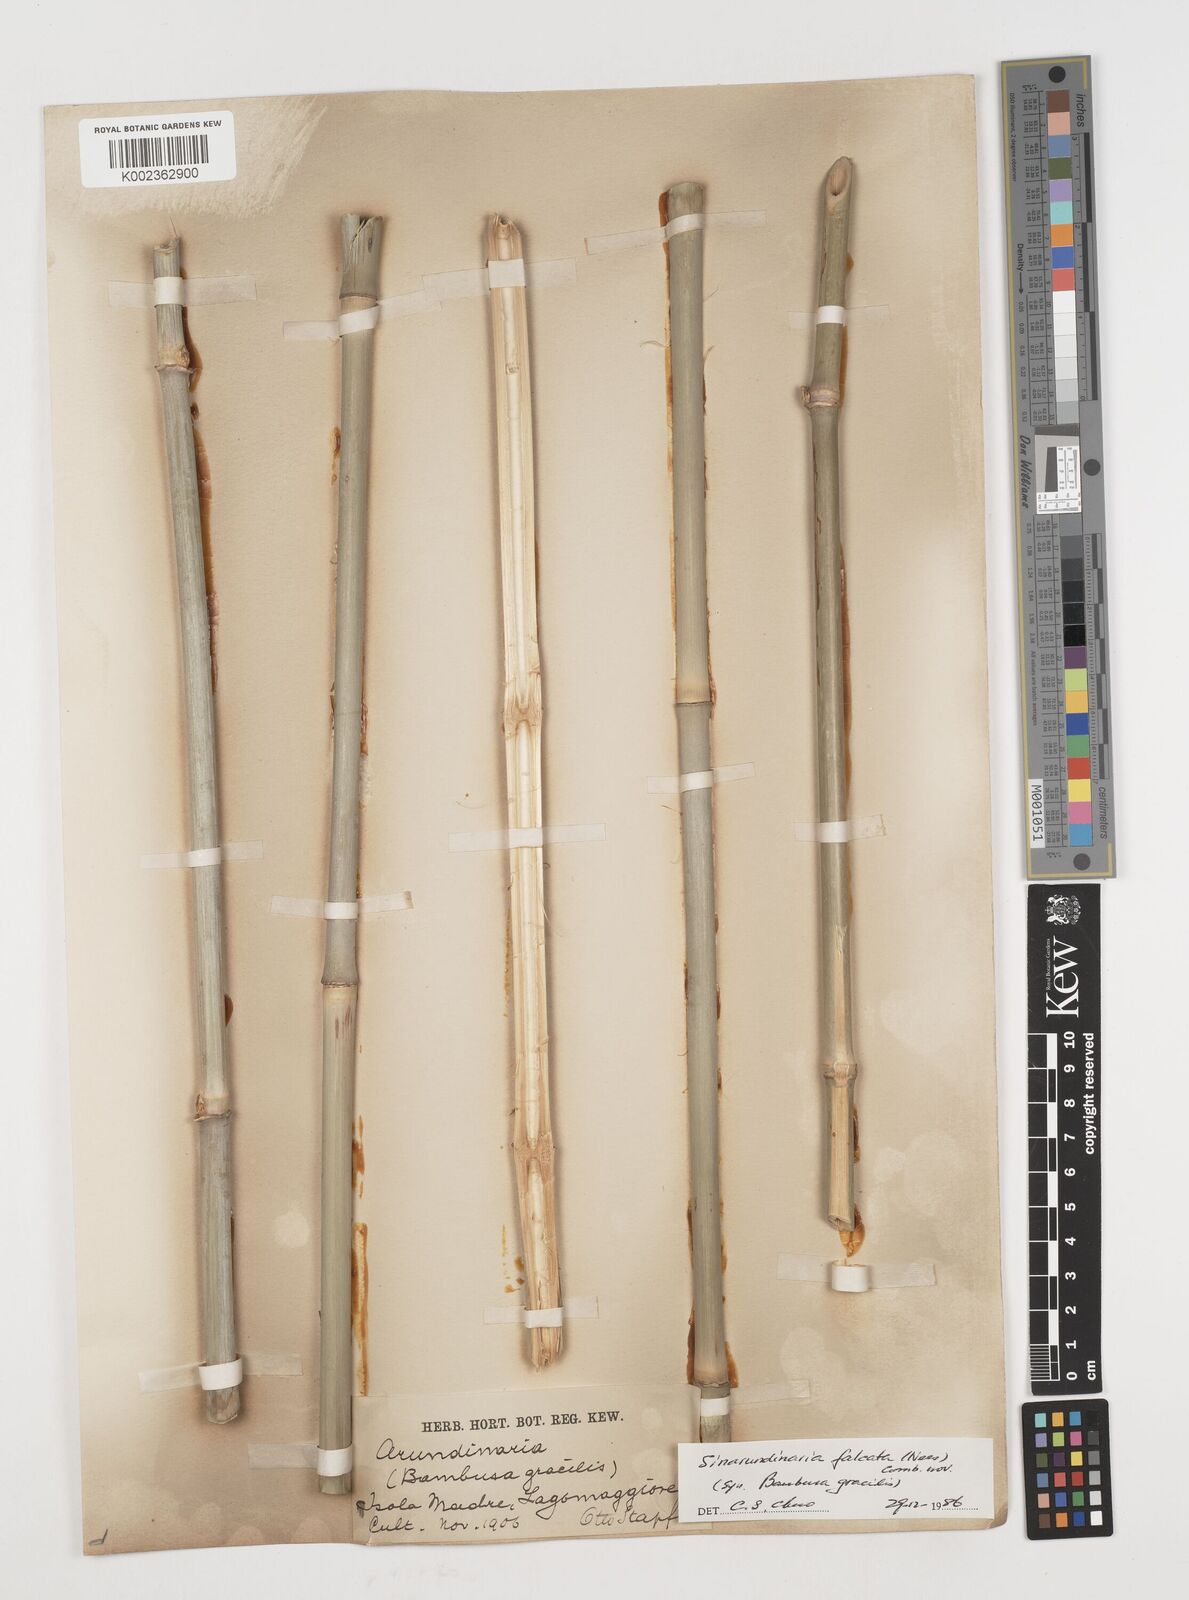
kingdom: Plantae
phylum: Tracheophyta
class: Liliopsida
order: Poales
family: Poaceae
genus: Drepanostachyum
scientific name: Drepanostachyum
